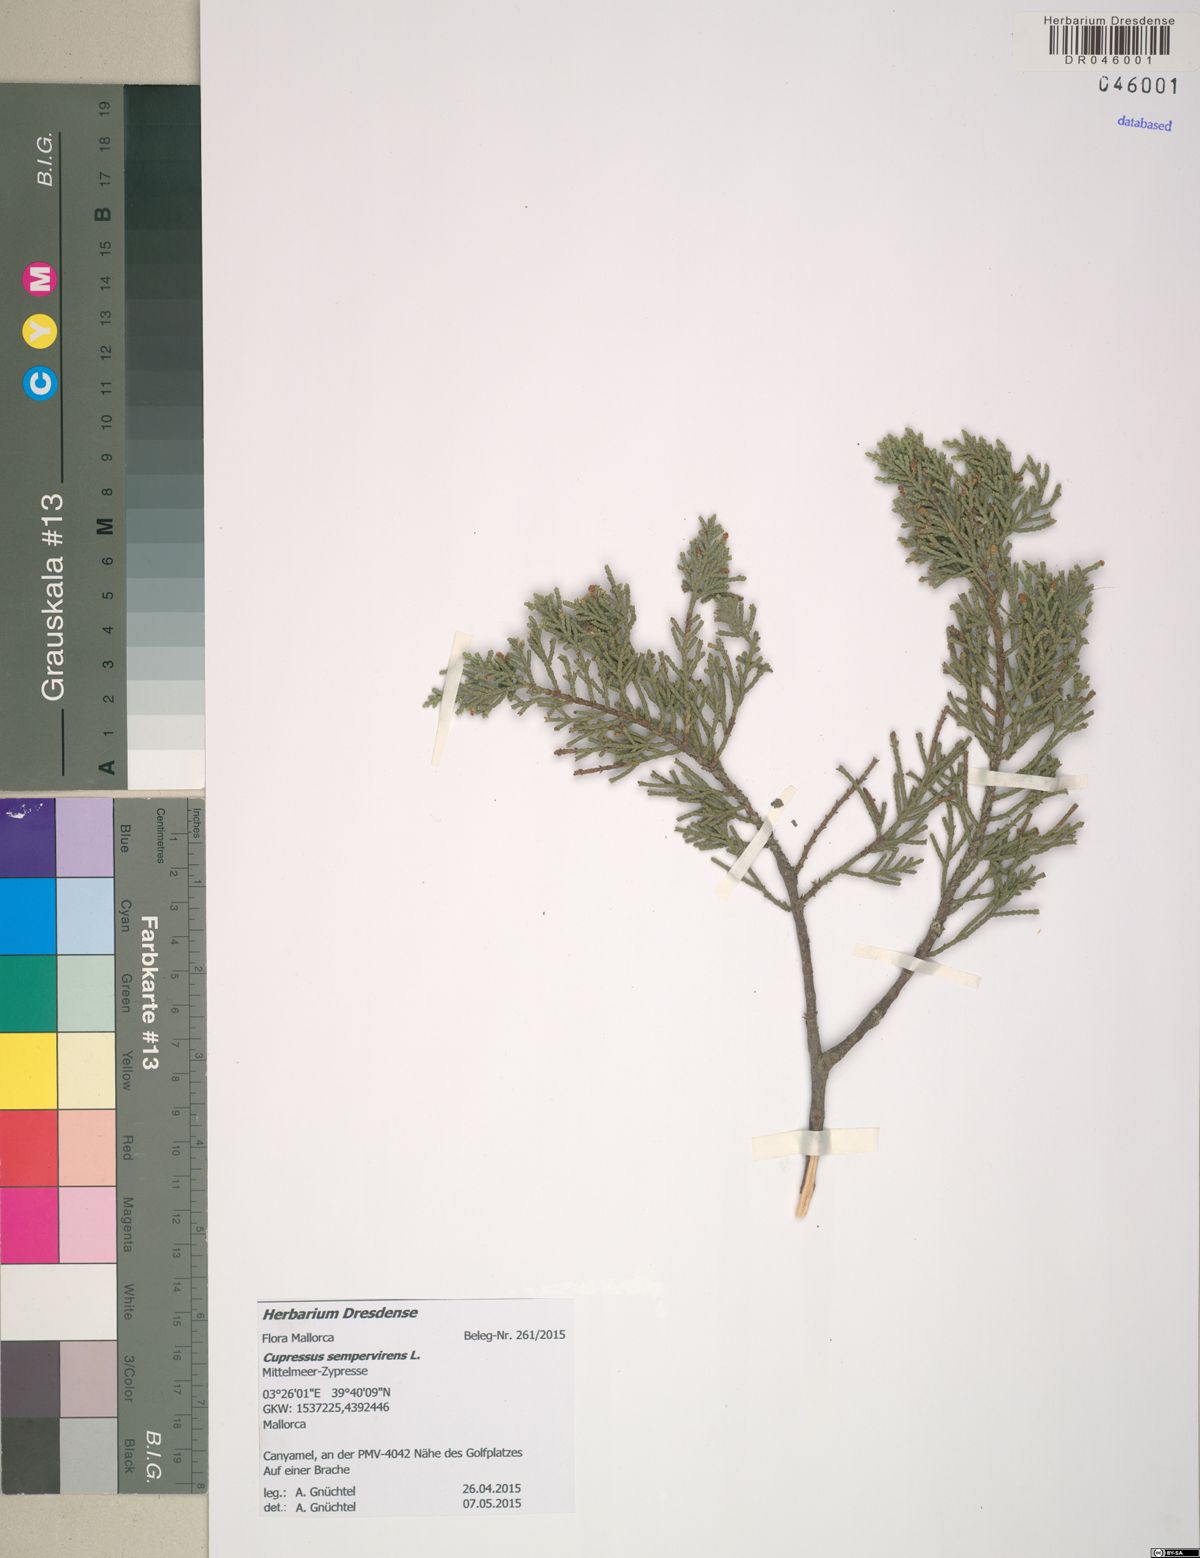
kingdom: Plantae
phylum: Tracheophyta
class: Pinopsida
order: Pinales
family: Cupressaceae
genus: Cupressus
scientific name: Cupressus sempervirens
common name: Italian cypress
